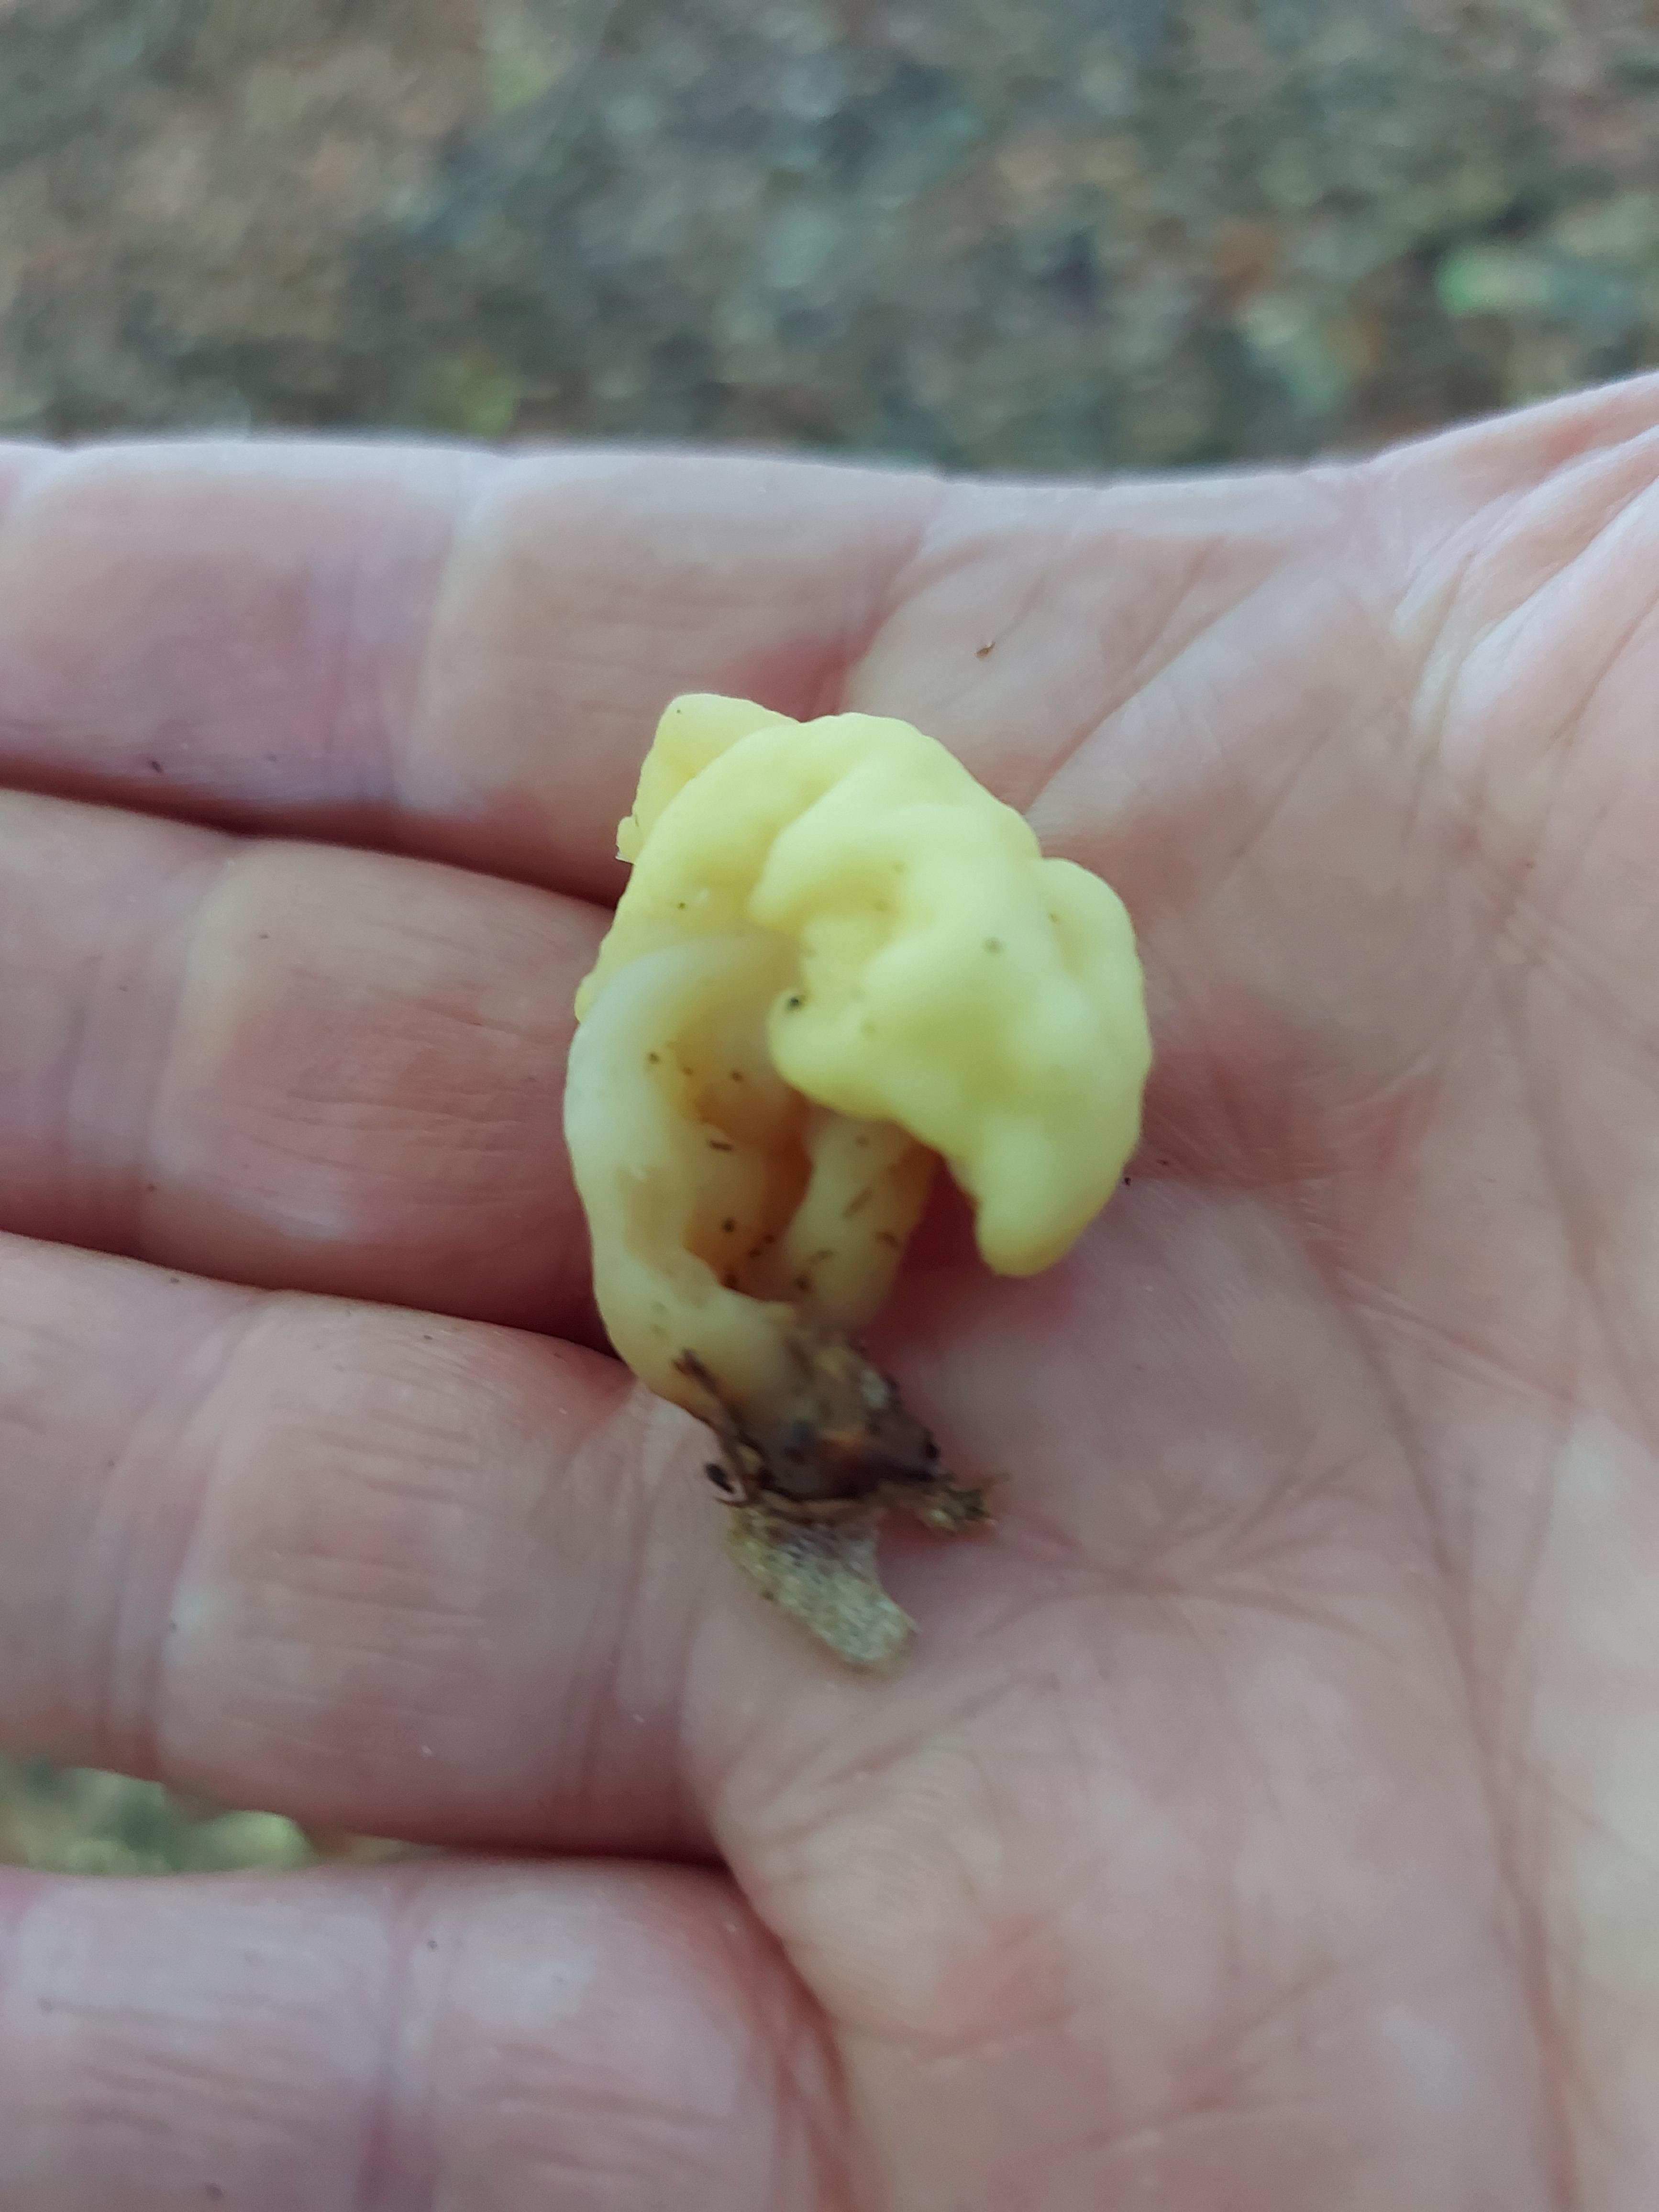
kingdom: Fungi
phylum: Ascomycota
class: Leotiomycetes
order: Rhytismatales
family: Cudoniaceae
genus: Spathularia
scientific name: Spathularia flavida
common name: gul spatelsvamp
